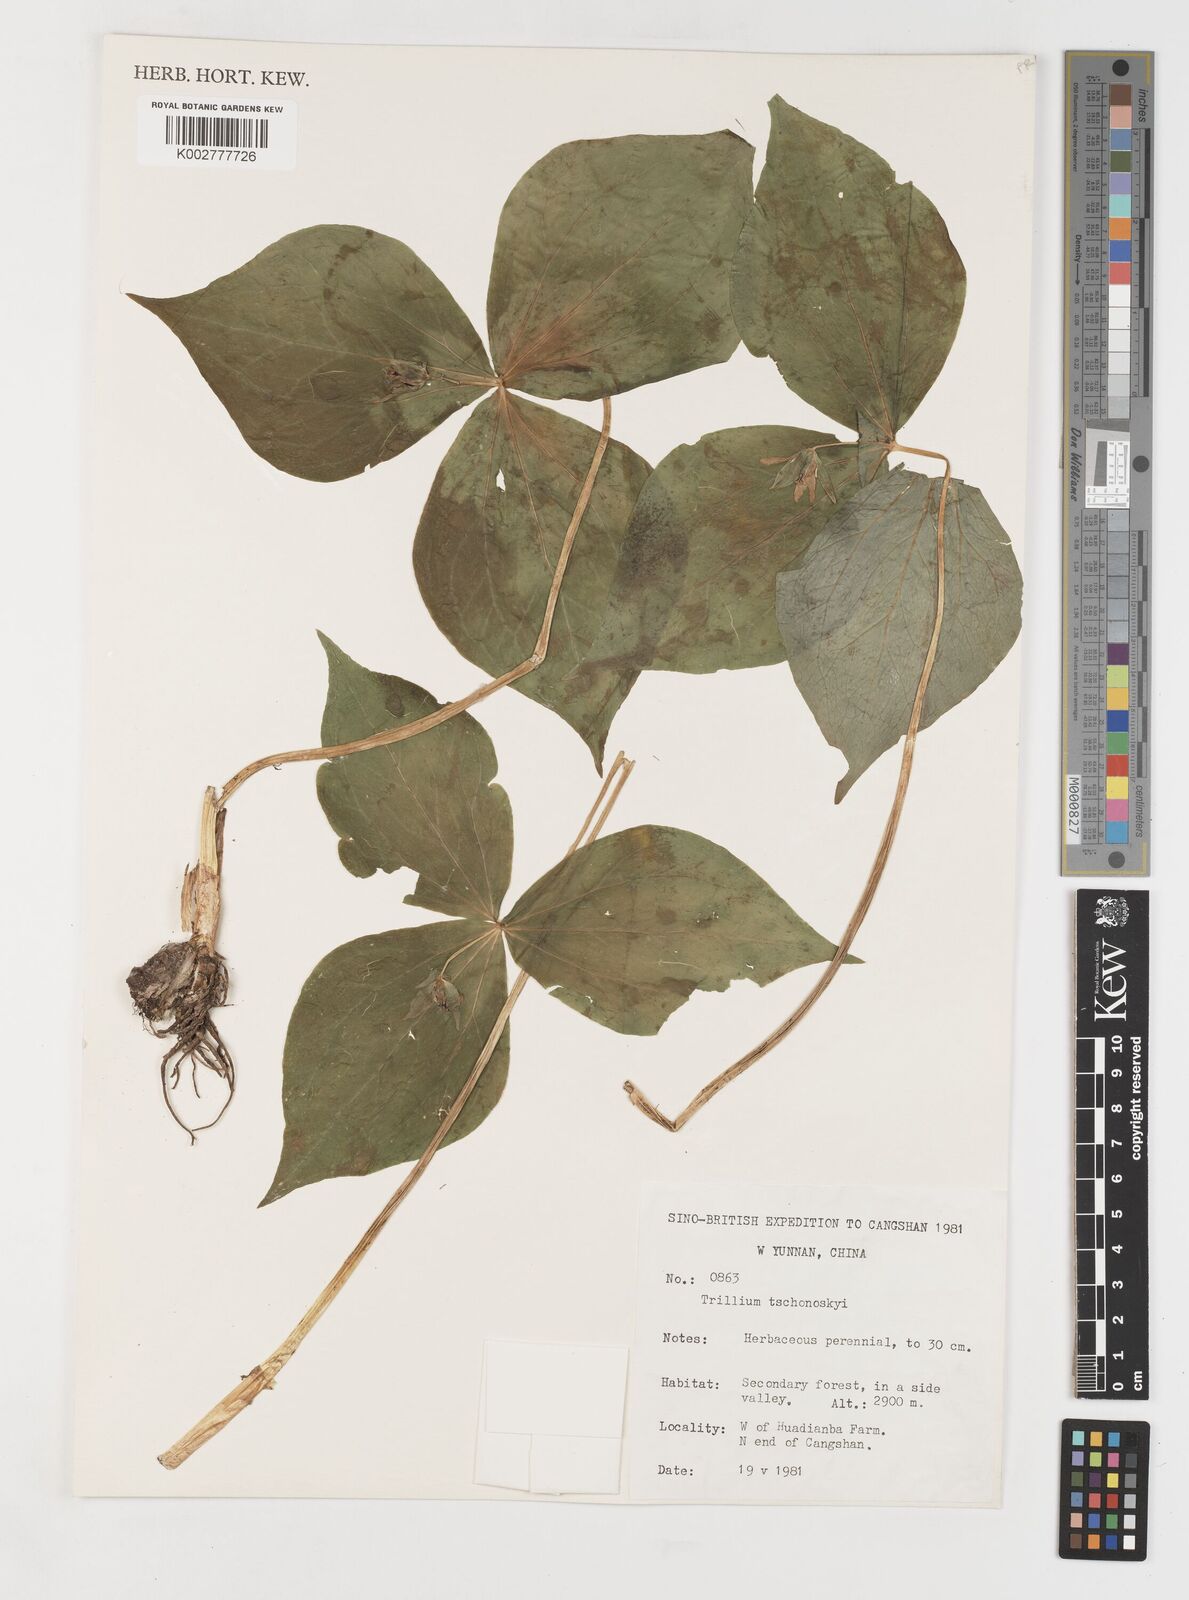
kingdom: Plantae
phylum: Tracheophyta
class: Liliopsida
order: Liliales
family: Melanthiaceae
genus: Trillium
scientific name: Trillium tschonoskii
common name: A pearl on head
